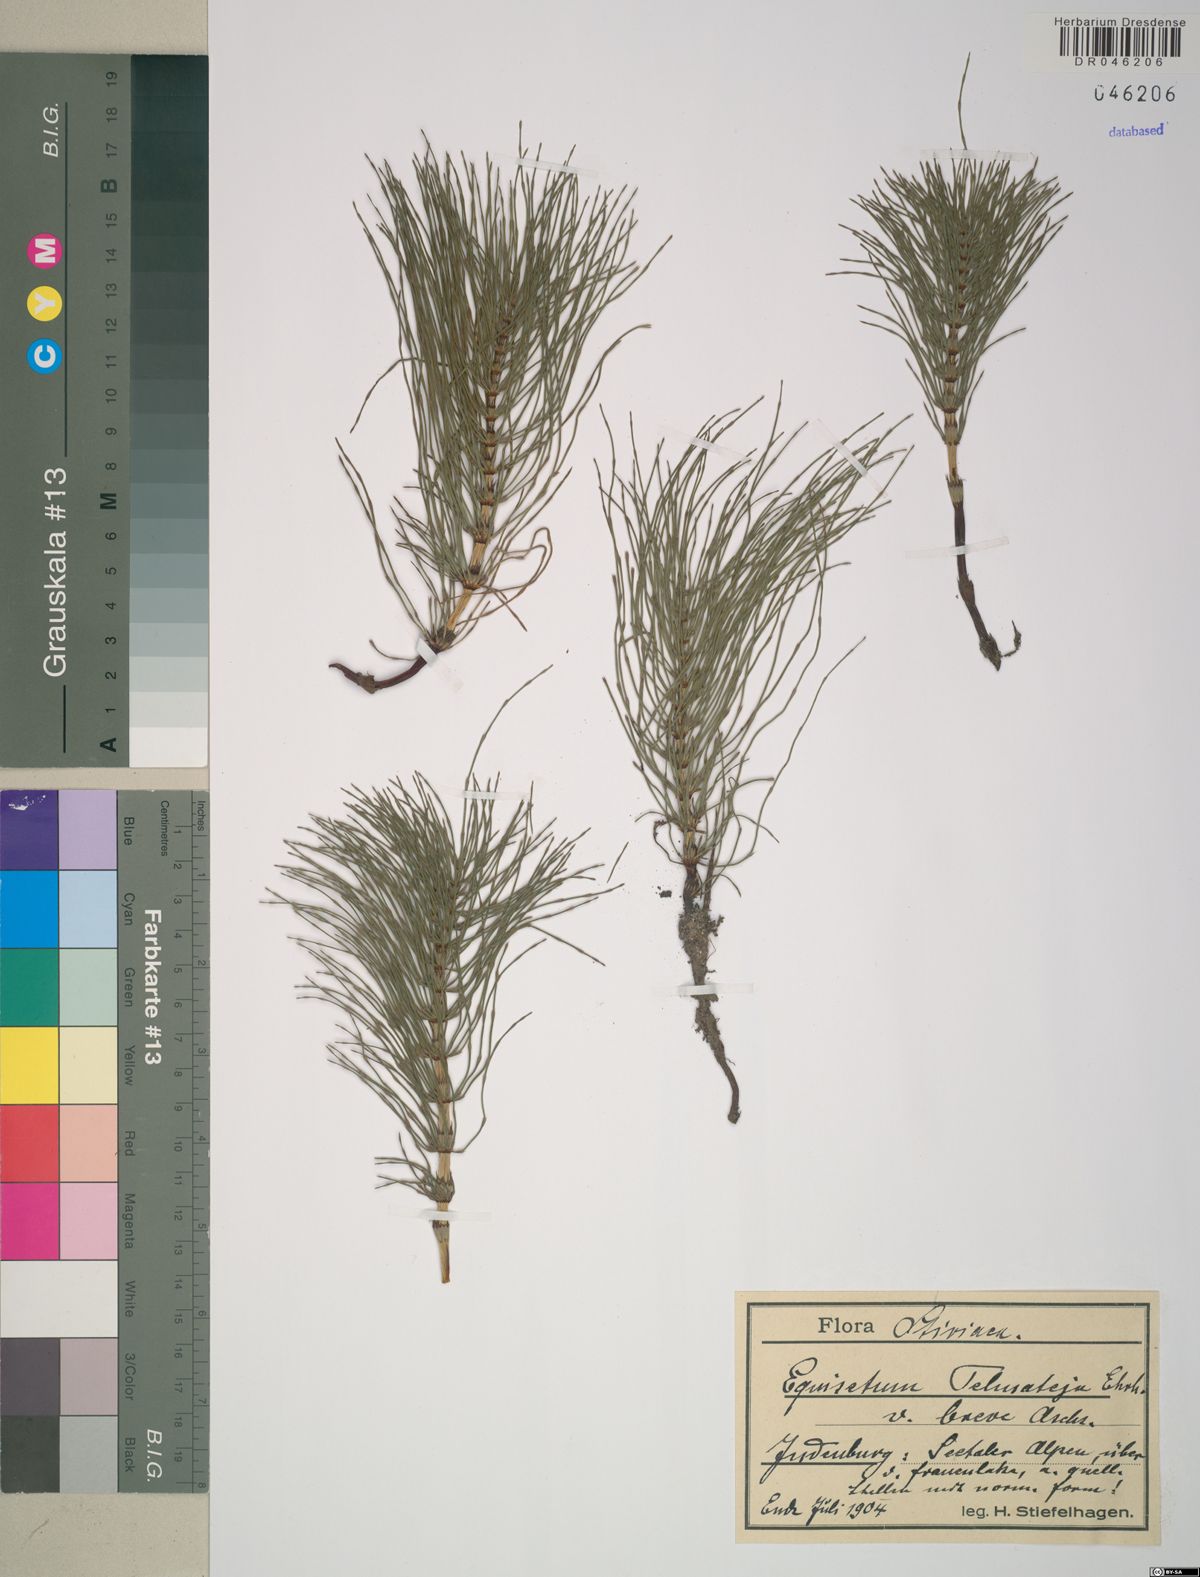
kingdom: Plantae
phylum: Tracheophyta
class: Polypodiopsida
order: Equisetales
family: Equisetaceae
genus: Equisetum
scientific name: Equisetum telmateia
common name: Great horsetail
